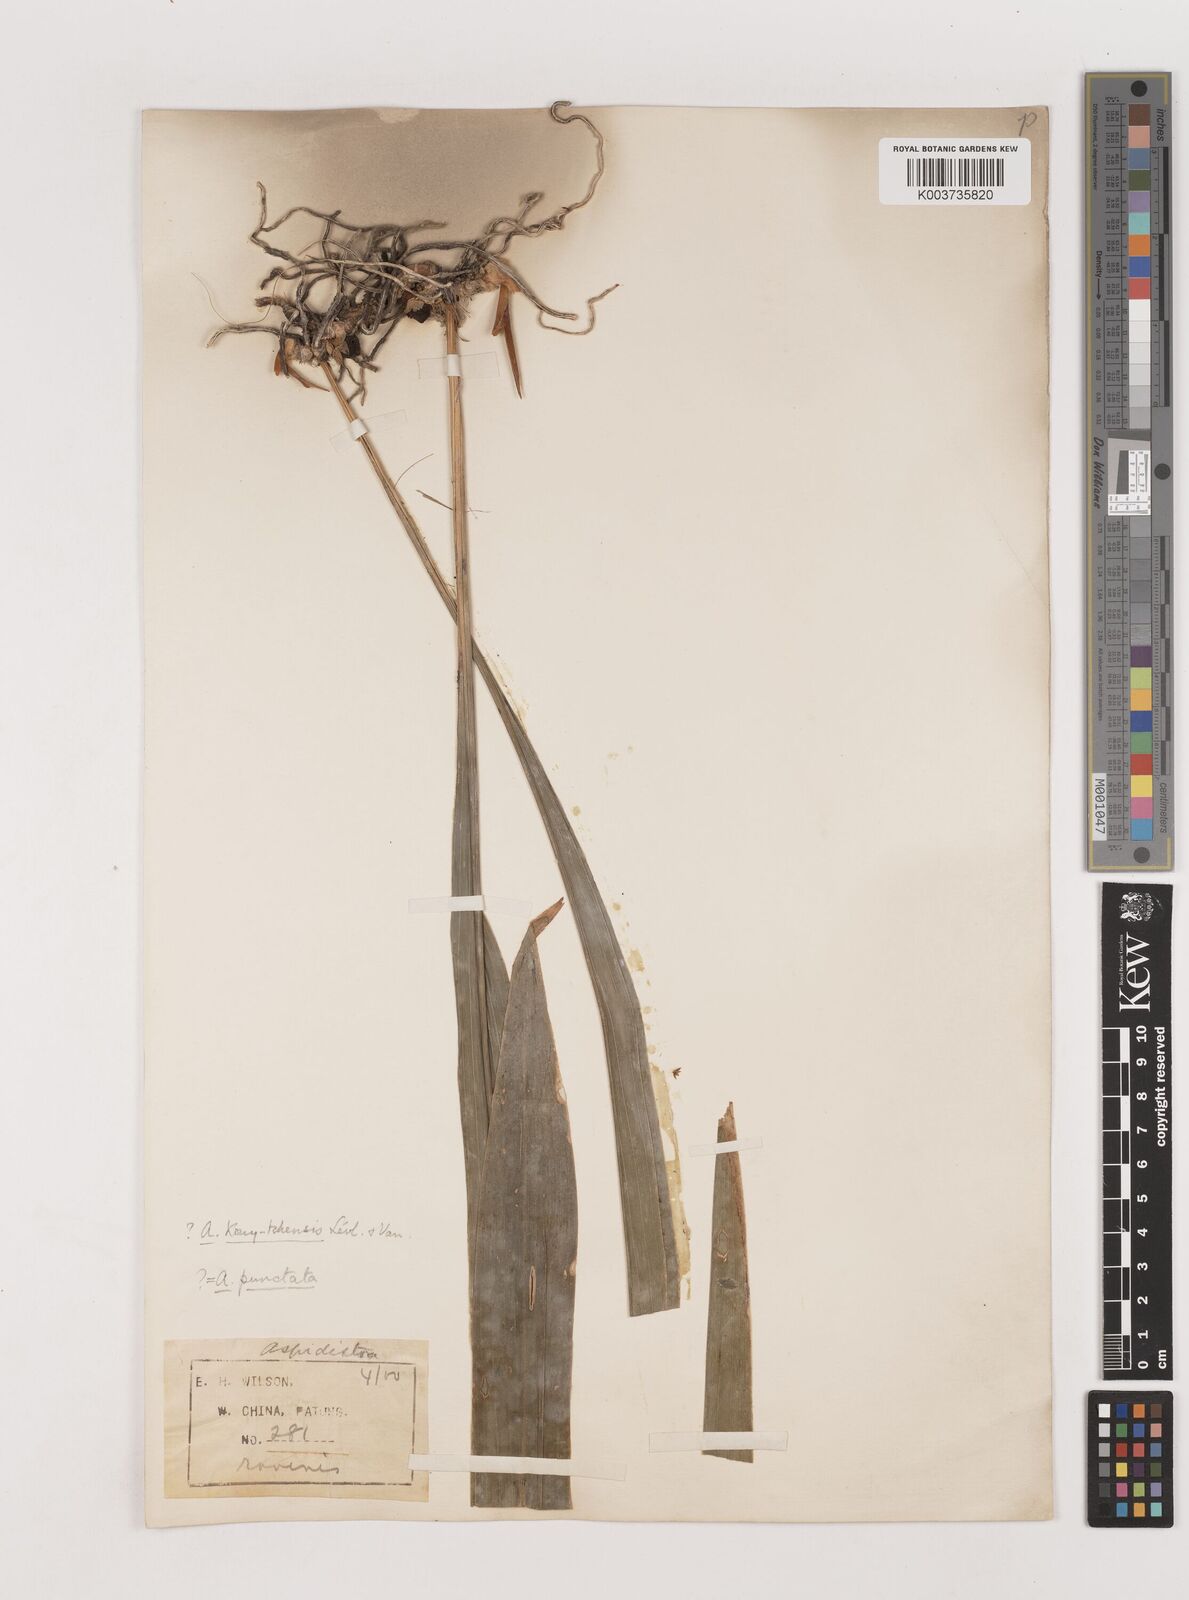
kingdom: Plantae
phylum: Tracheophyta
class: Liliopsida
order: Asparagales
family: Asparagaceae
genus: Aspidistra
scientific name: Aspidistra
